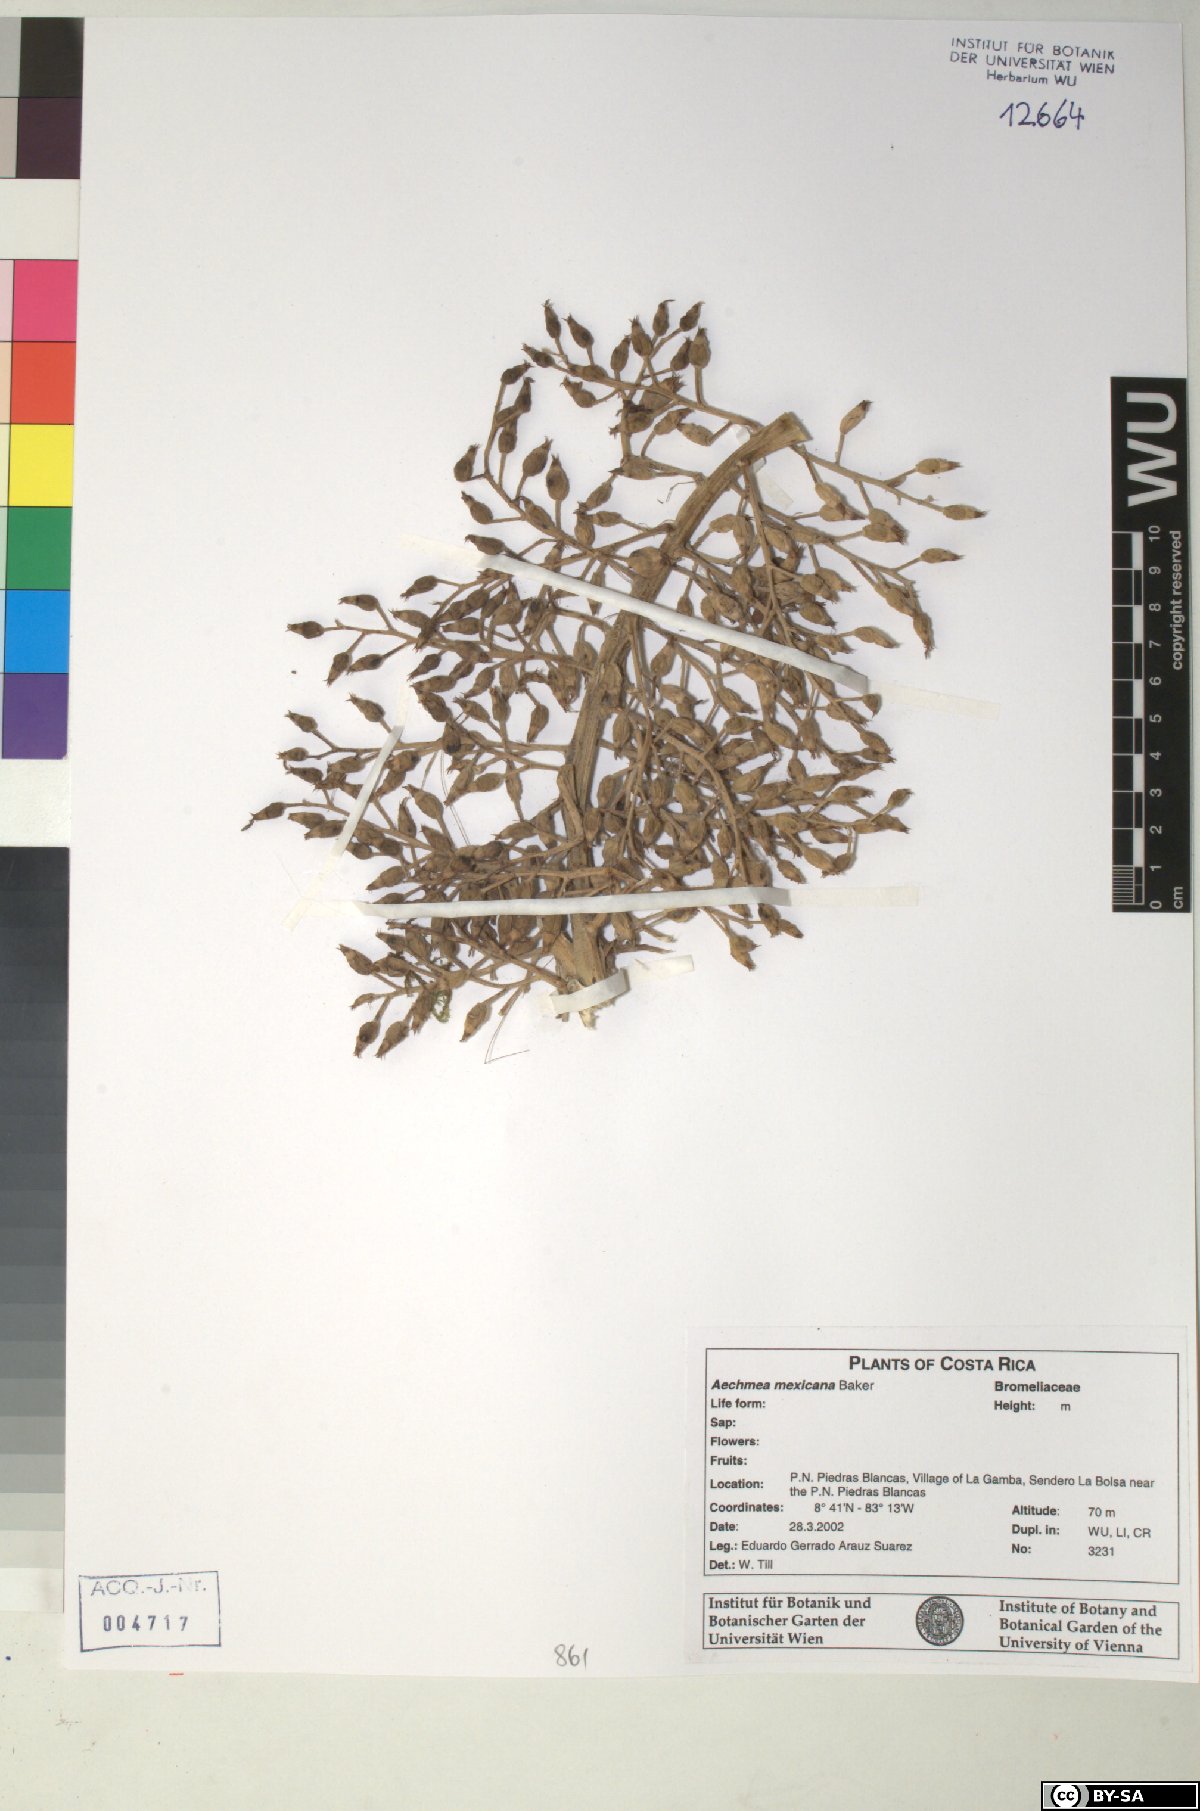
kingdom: Plantae
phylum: Tracheophyta
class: Liliopsida
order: Poales
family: Bromeliaceae
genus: Aechmea
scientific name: Aechmea mexicana
